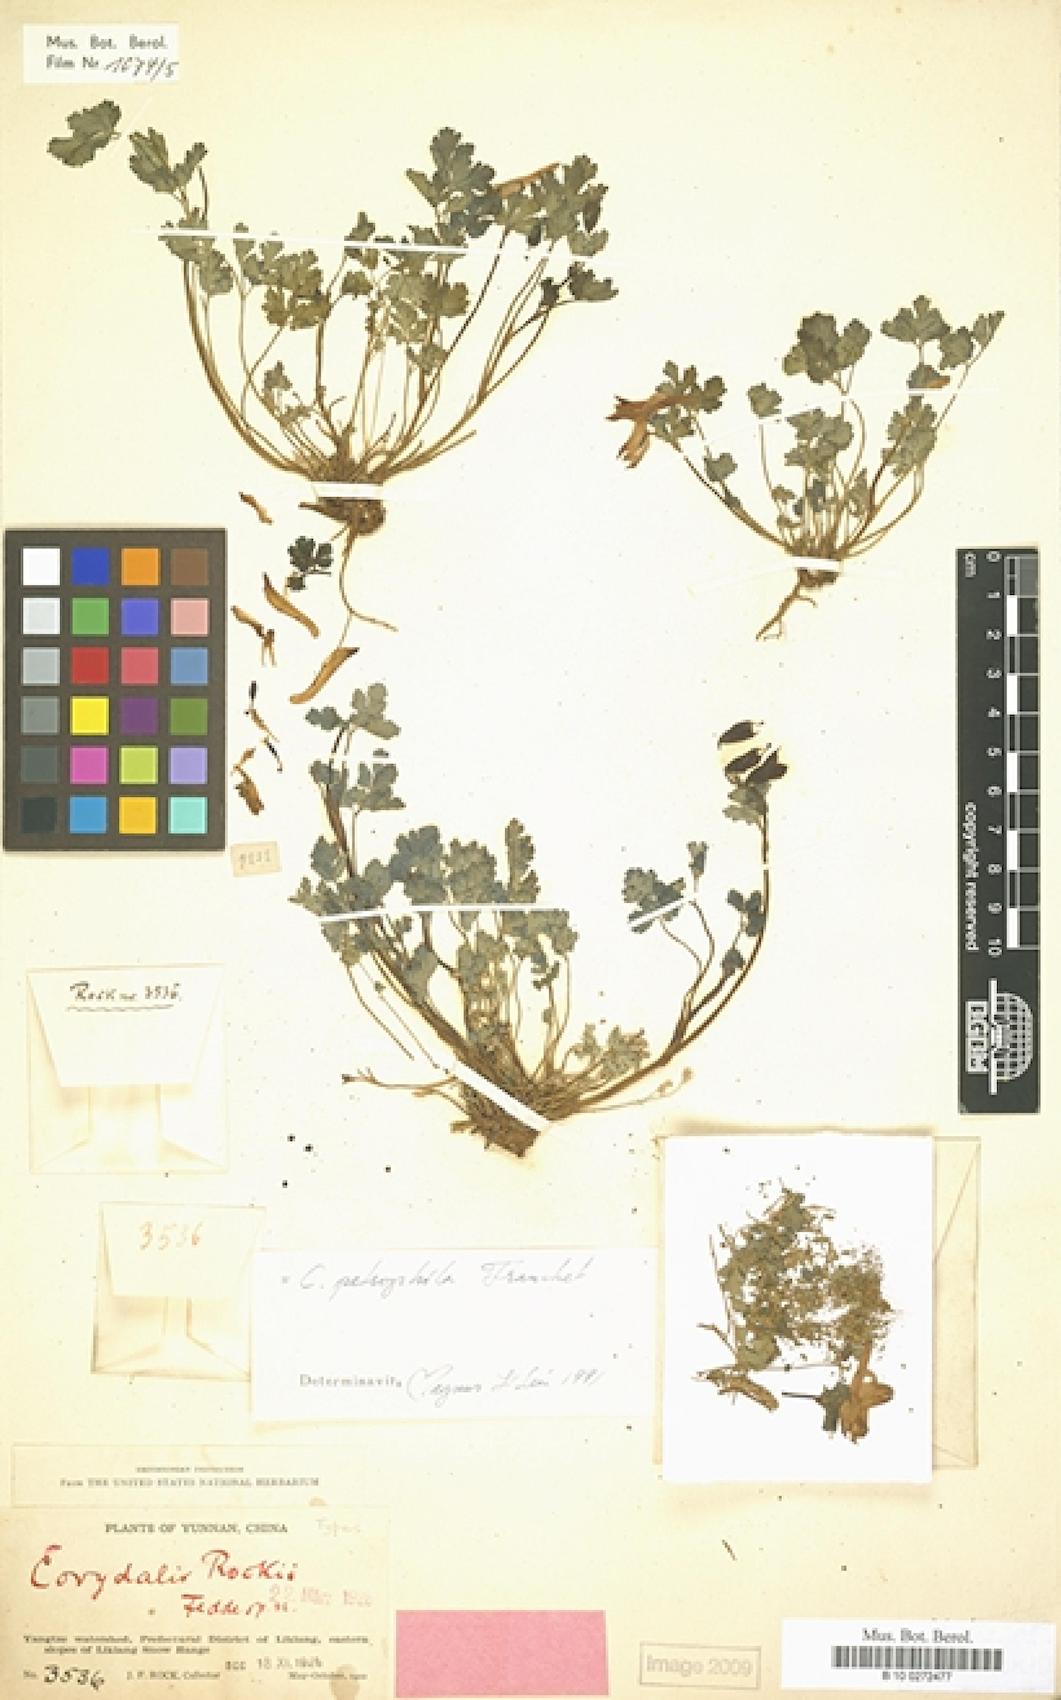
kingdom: Plantae
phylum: Tracheophyta
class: Magnoliopsida
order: Ranunculales
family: Papaveraceae
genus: Corydalis
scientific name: Corydalis petrophila
